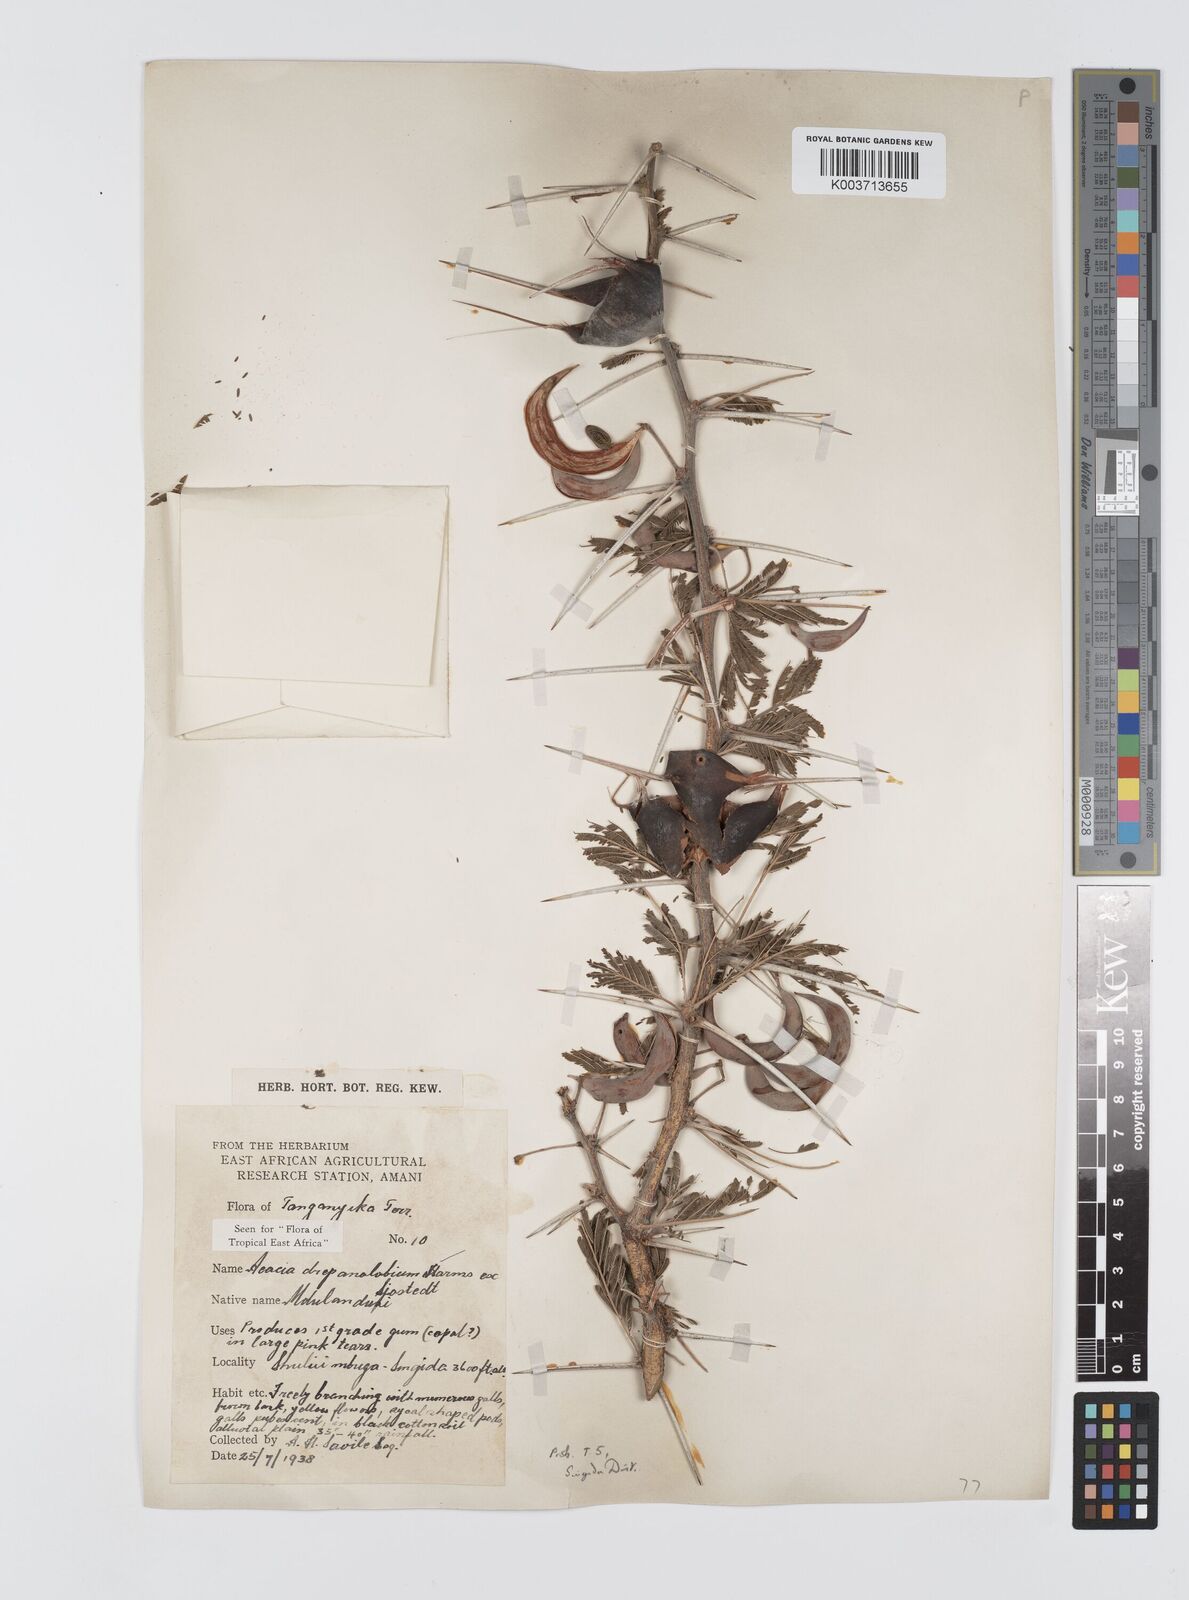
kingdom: Plantae
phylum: Tracheophyta
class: Magnoliopsida
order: Fabales
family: Fabaceae
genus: Vachellia
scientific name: Vachellia drepanolobium
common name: Whistling thorn
